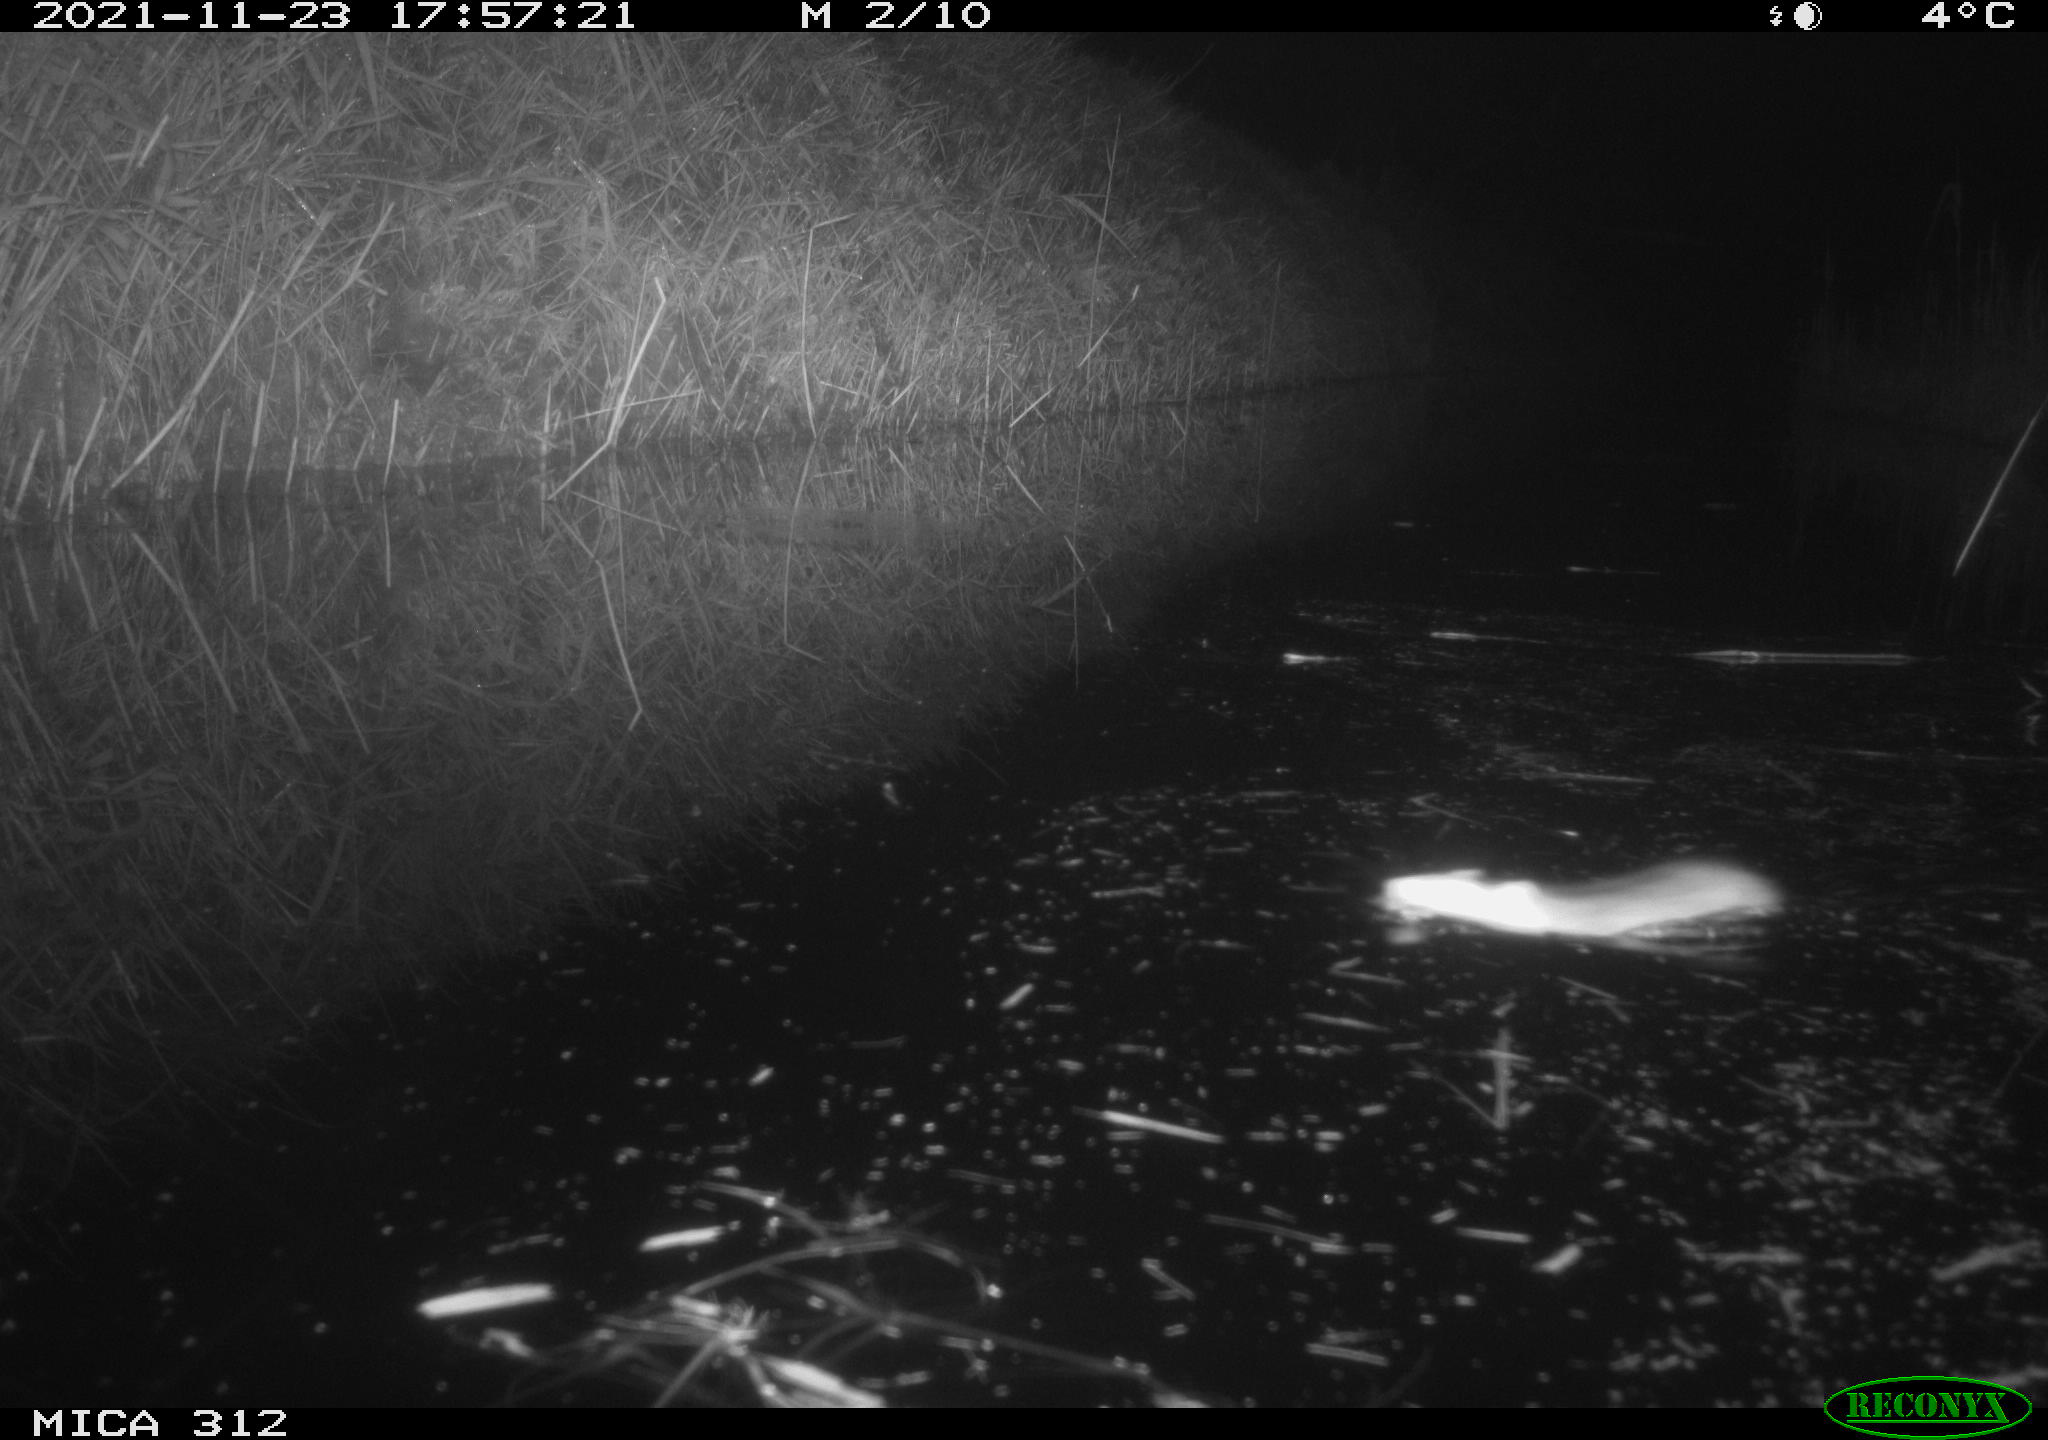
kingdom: Animalia
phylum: Chordata
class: Mammalia
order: Rodentia
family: Muridae
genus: Rattus
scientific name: Rattus norvegicus
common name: Brown rat
